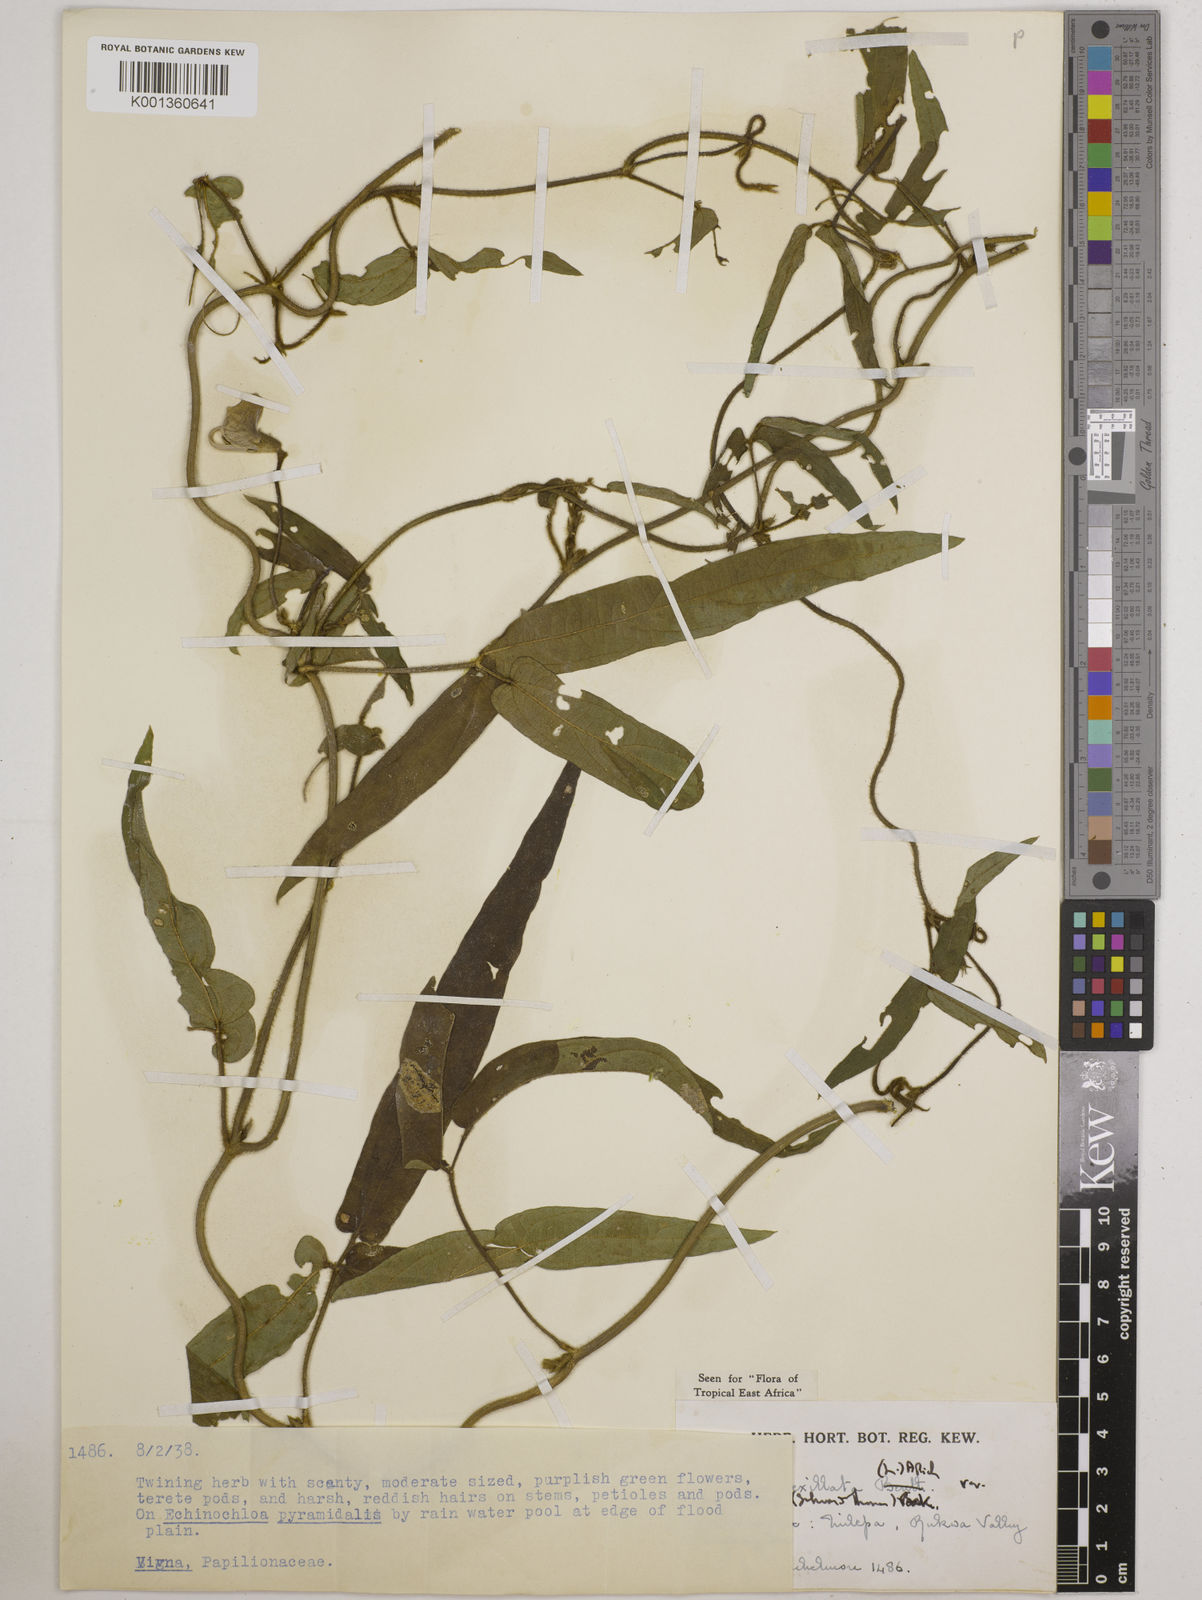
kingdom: Plantae
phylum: Tracheophyta
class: Magnoliopsida
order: Fabales
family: Fabaceae
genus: Vigna
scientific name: Vigna vexillata
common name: Zombi pea
